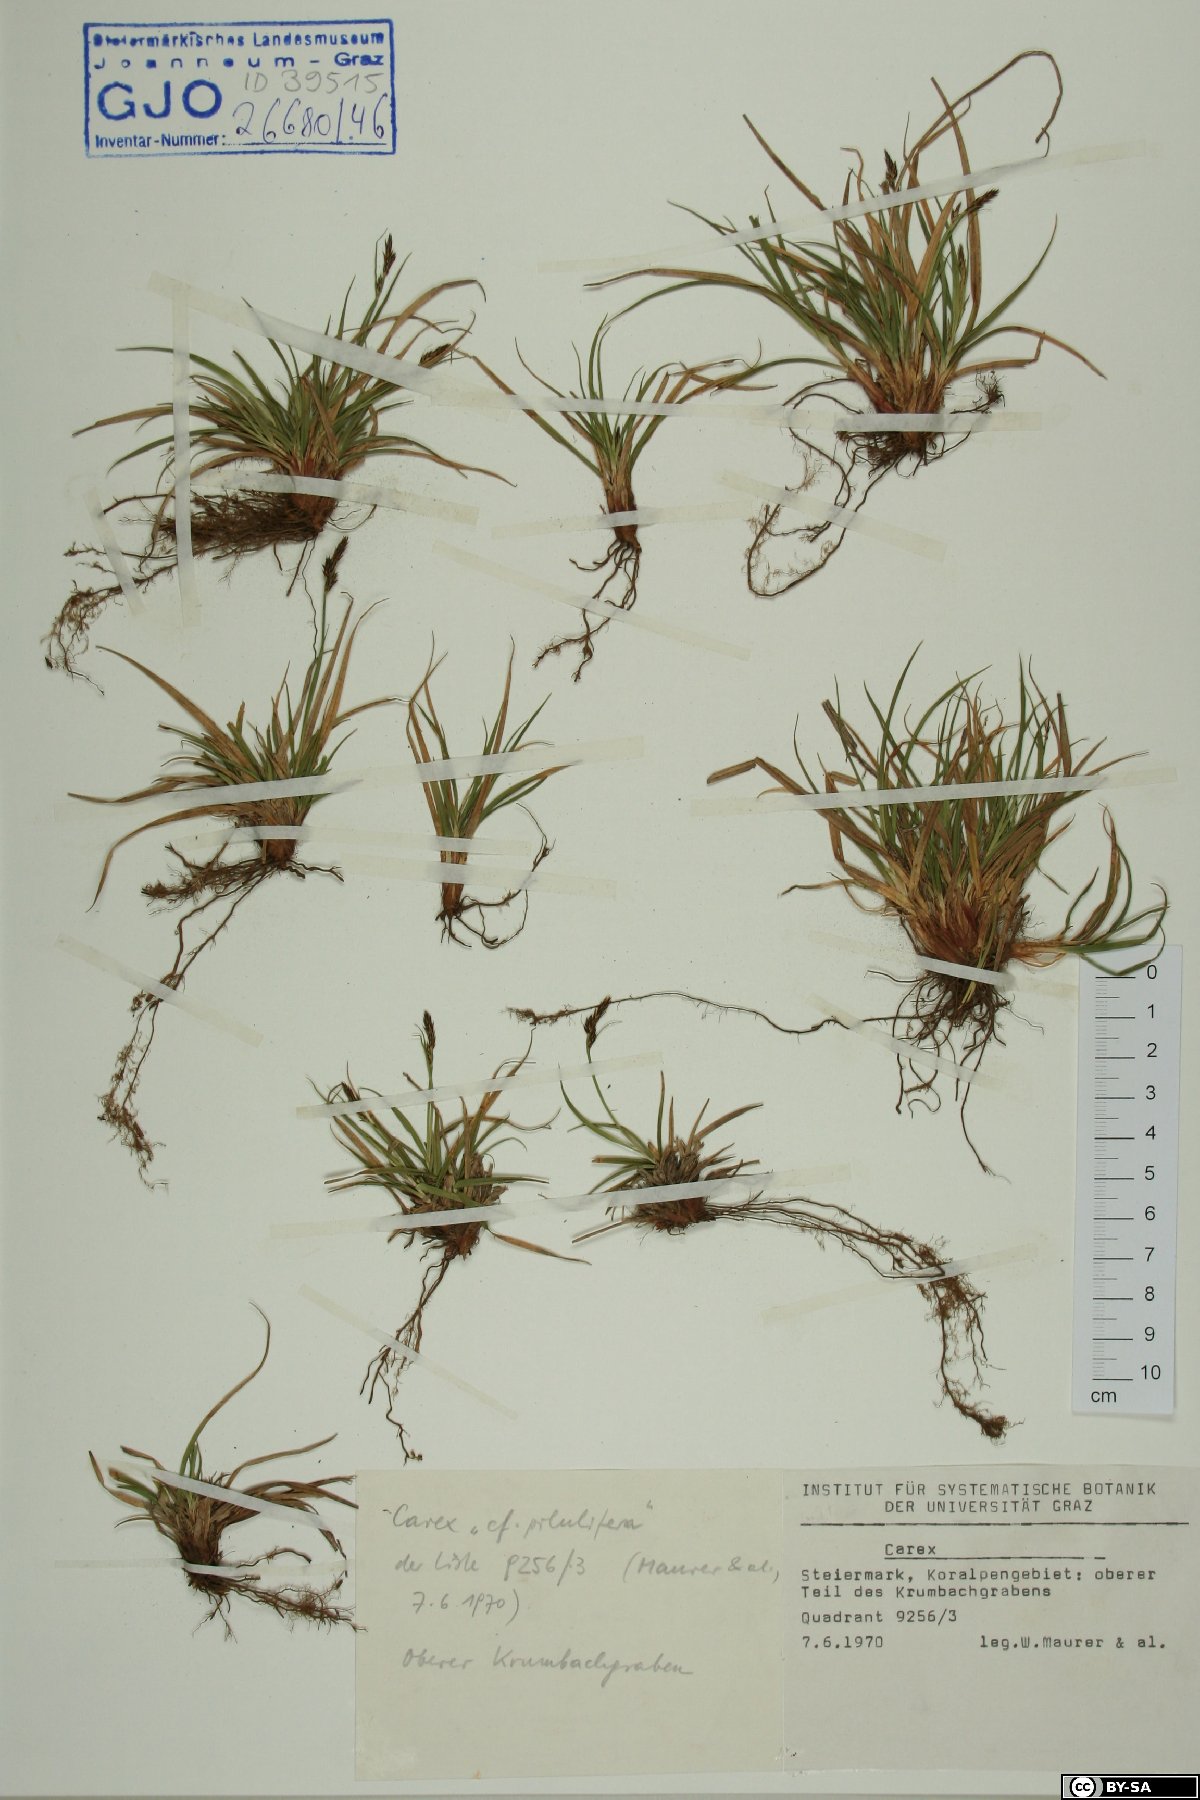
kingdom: Plantae
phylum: Tracheophyta
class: Liliopsida
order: Poales
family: Cyperaceae
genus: Carex
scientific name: Carex pilulifera
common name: Pill sedge
